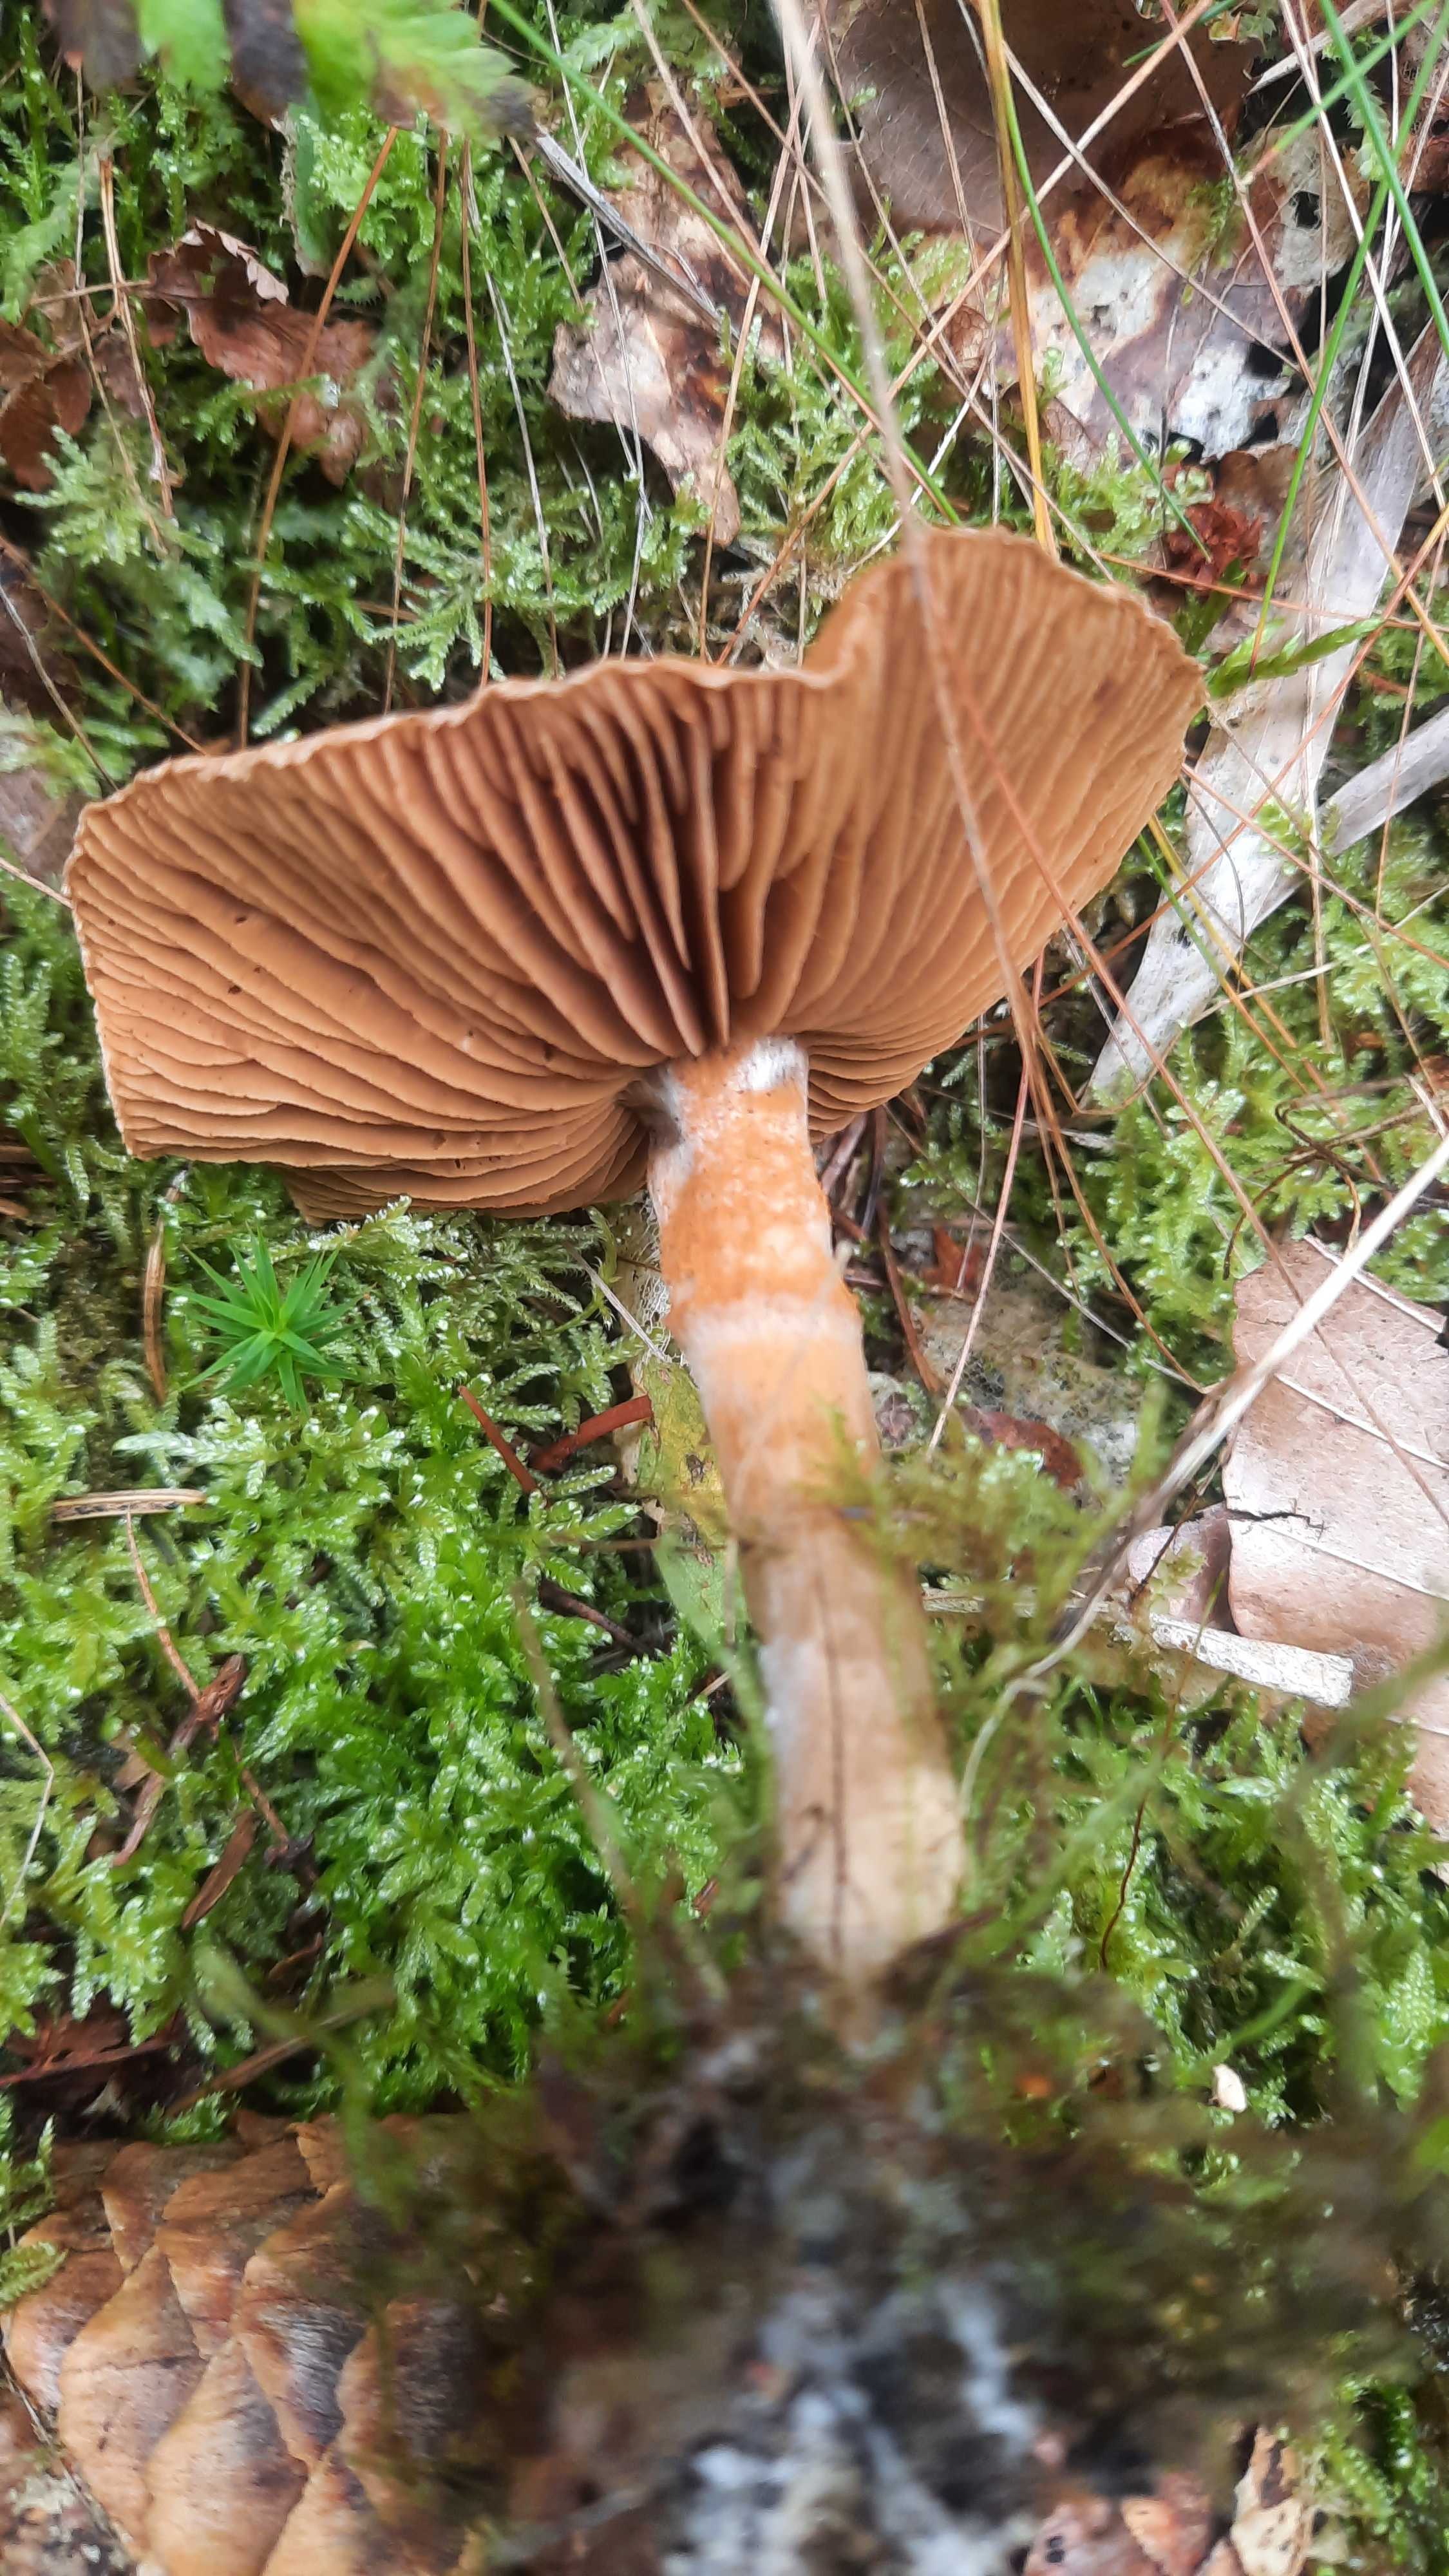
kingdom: Fungi
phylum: Basidiomycota
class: Agaricomycetes
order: Agaricales
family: Cortinariaceae
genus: Cortinarius
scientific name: Cortinarius
